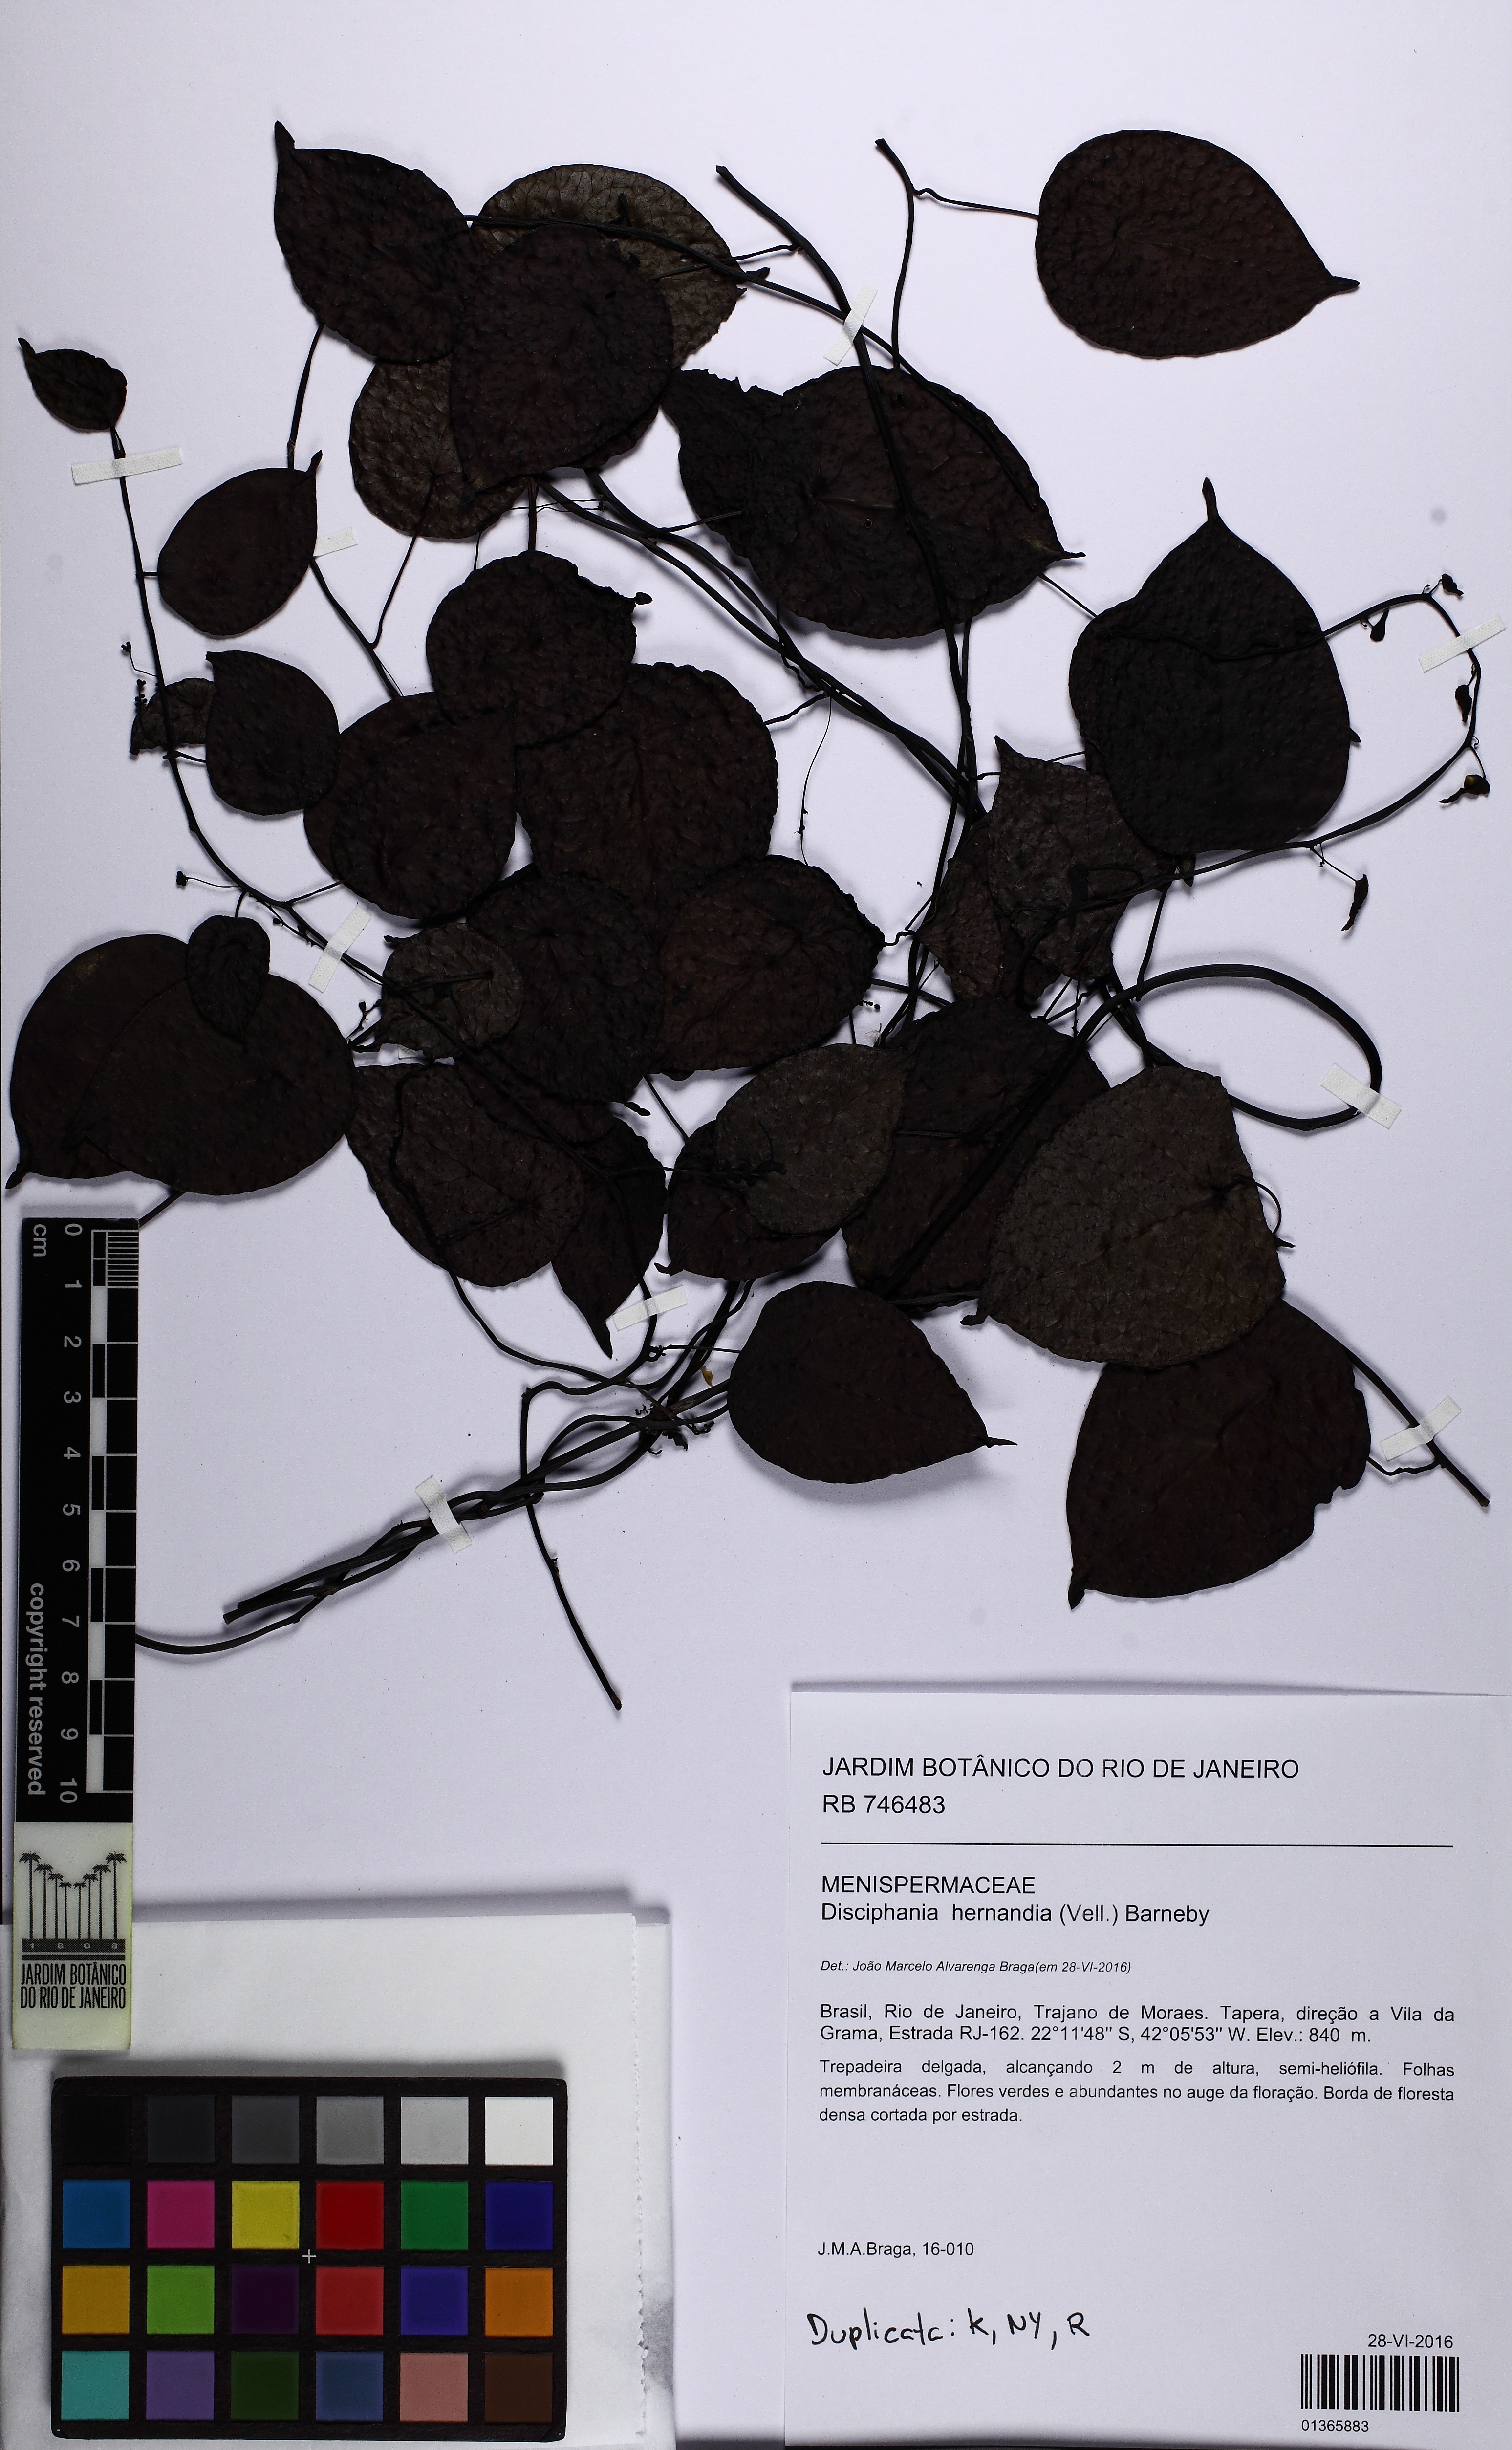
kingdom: Plantae
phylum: Tracheophyta
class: Magnoliopsida
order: Ranunculales
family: Menispermaceae
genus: Disciphania
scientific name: Disciphania hernandia
